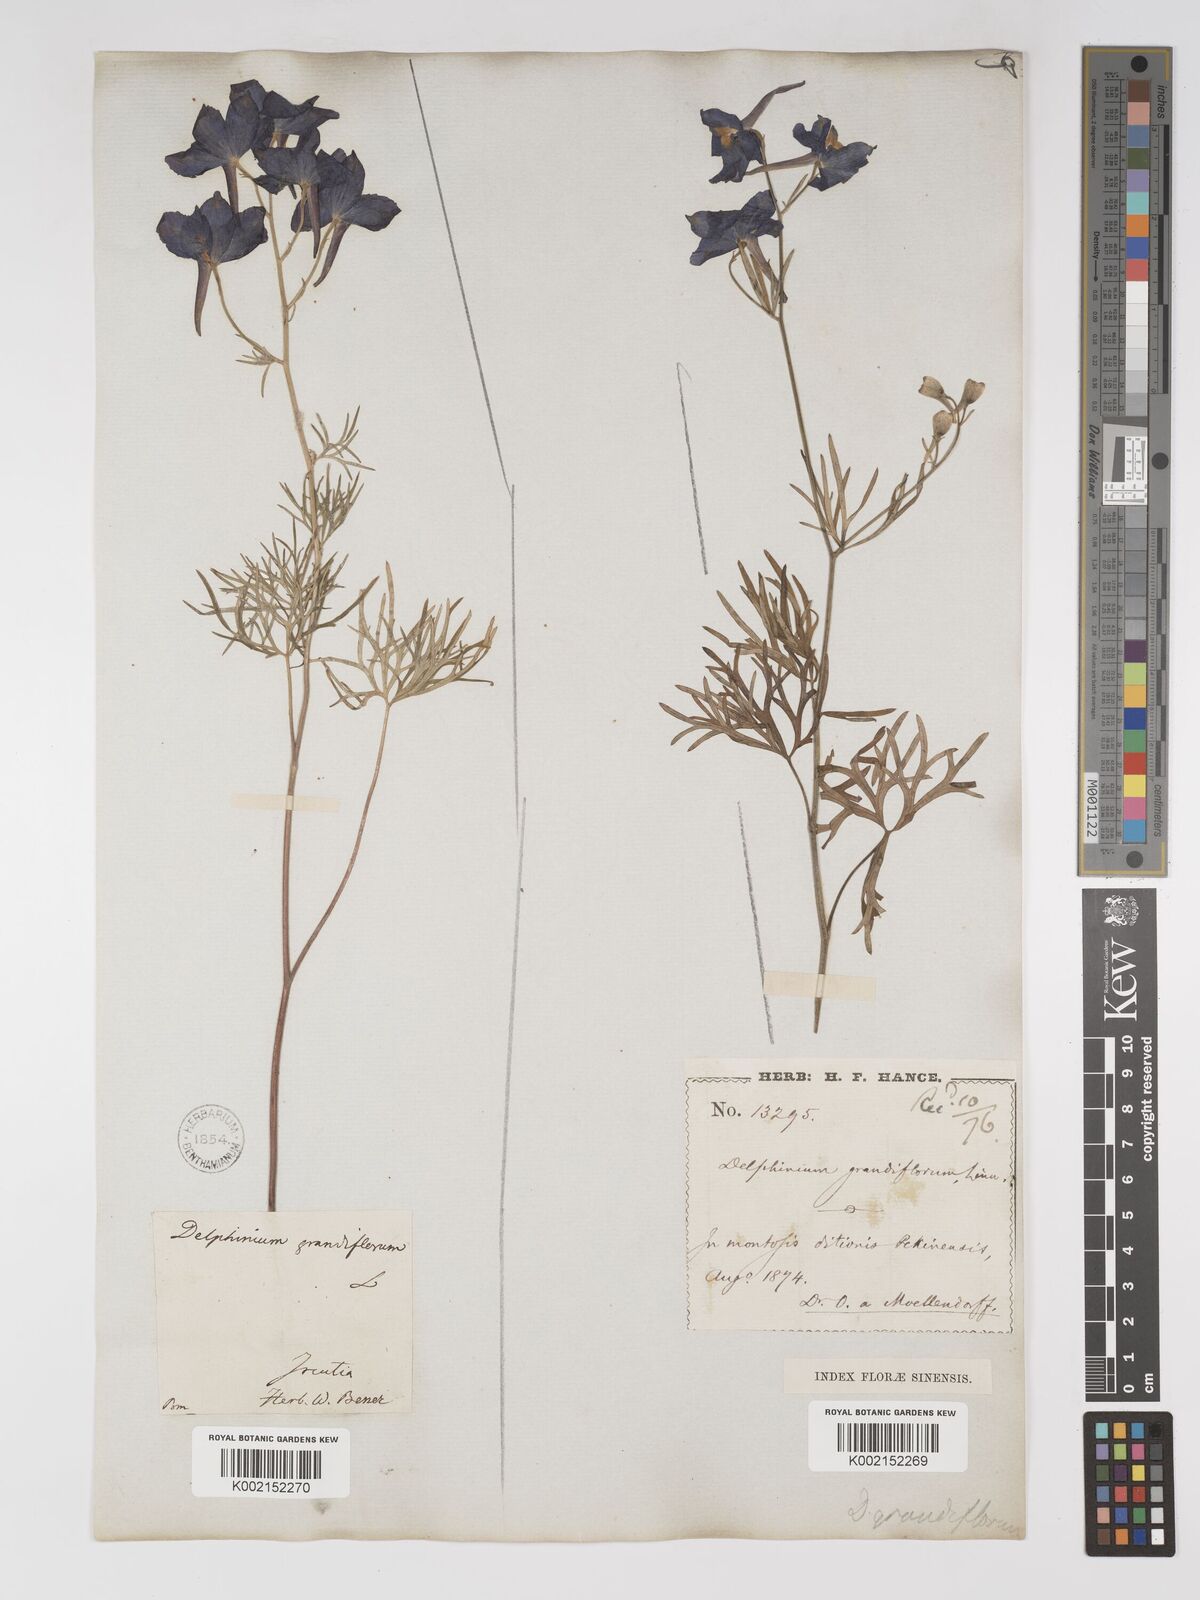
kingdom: Plantae
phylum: Tracheophyta
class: Magnoliopsida
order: Ranunculales
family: Ranunculaceae
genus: Delphinium
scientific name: Delphinium grandiflorum
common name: Siberian larkspur
